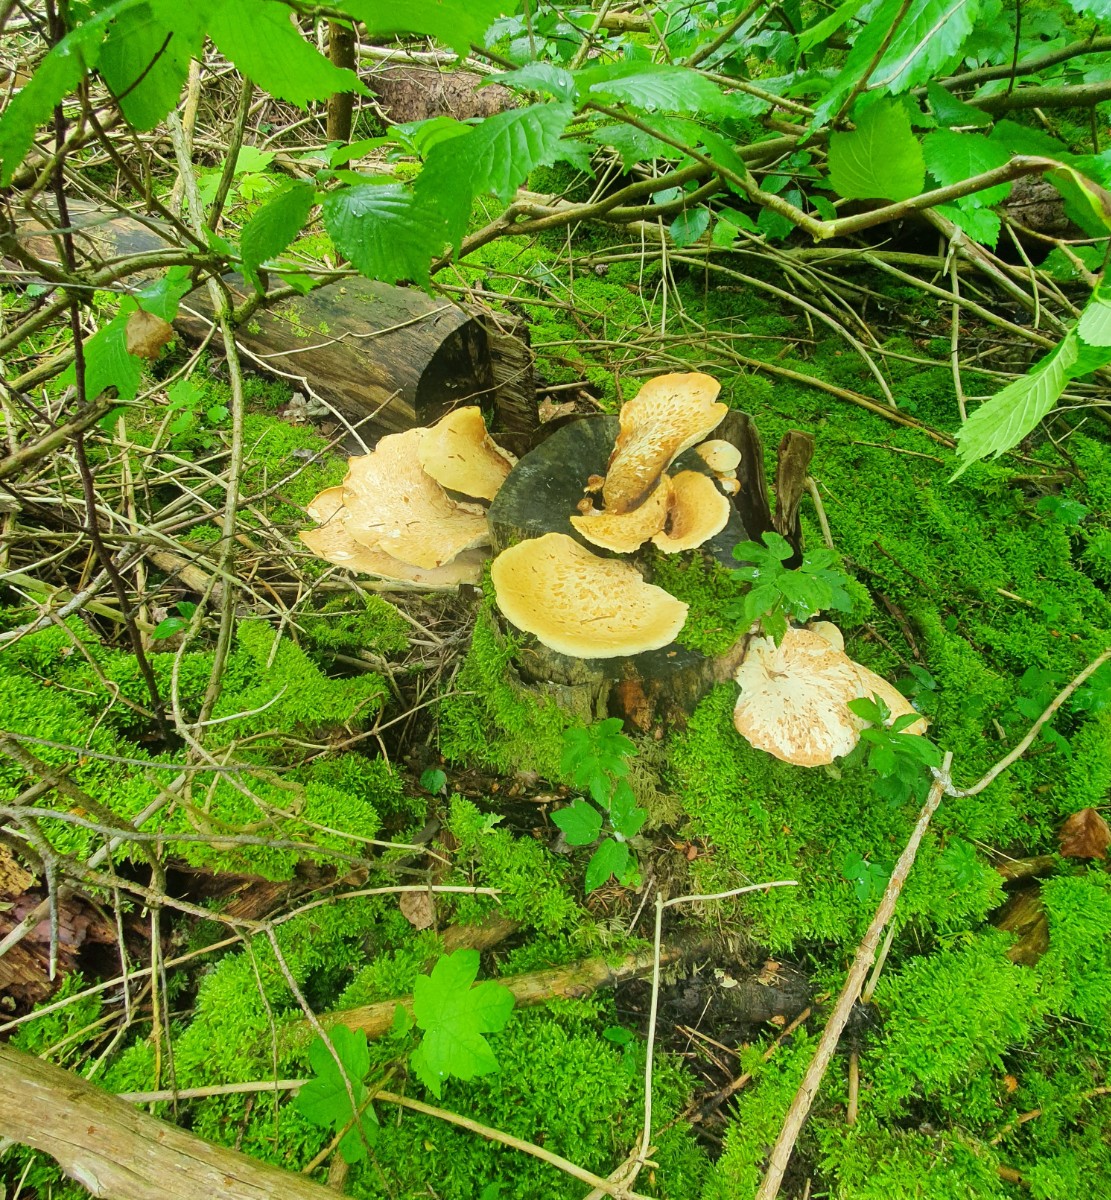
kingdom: Fungi
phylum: Basidiomycota
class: Agaricomycetes
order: Polyporales
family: Polyporaceae
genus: Cerioporus
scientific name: Cerioporus squamosus
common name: skællet stilkporesvamp
